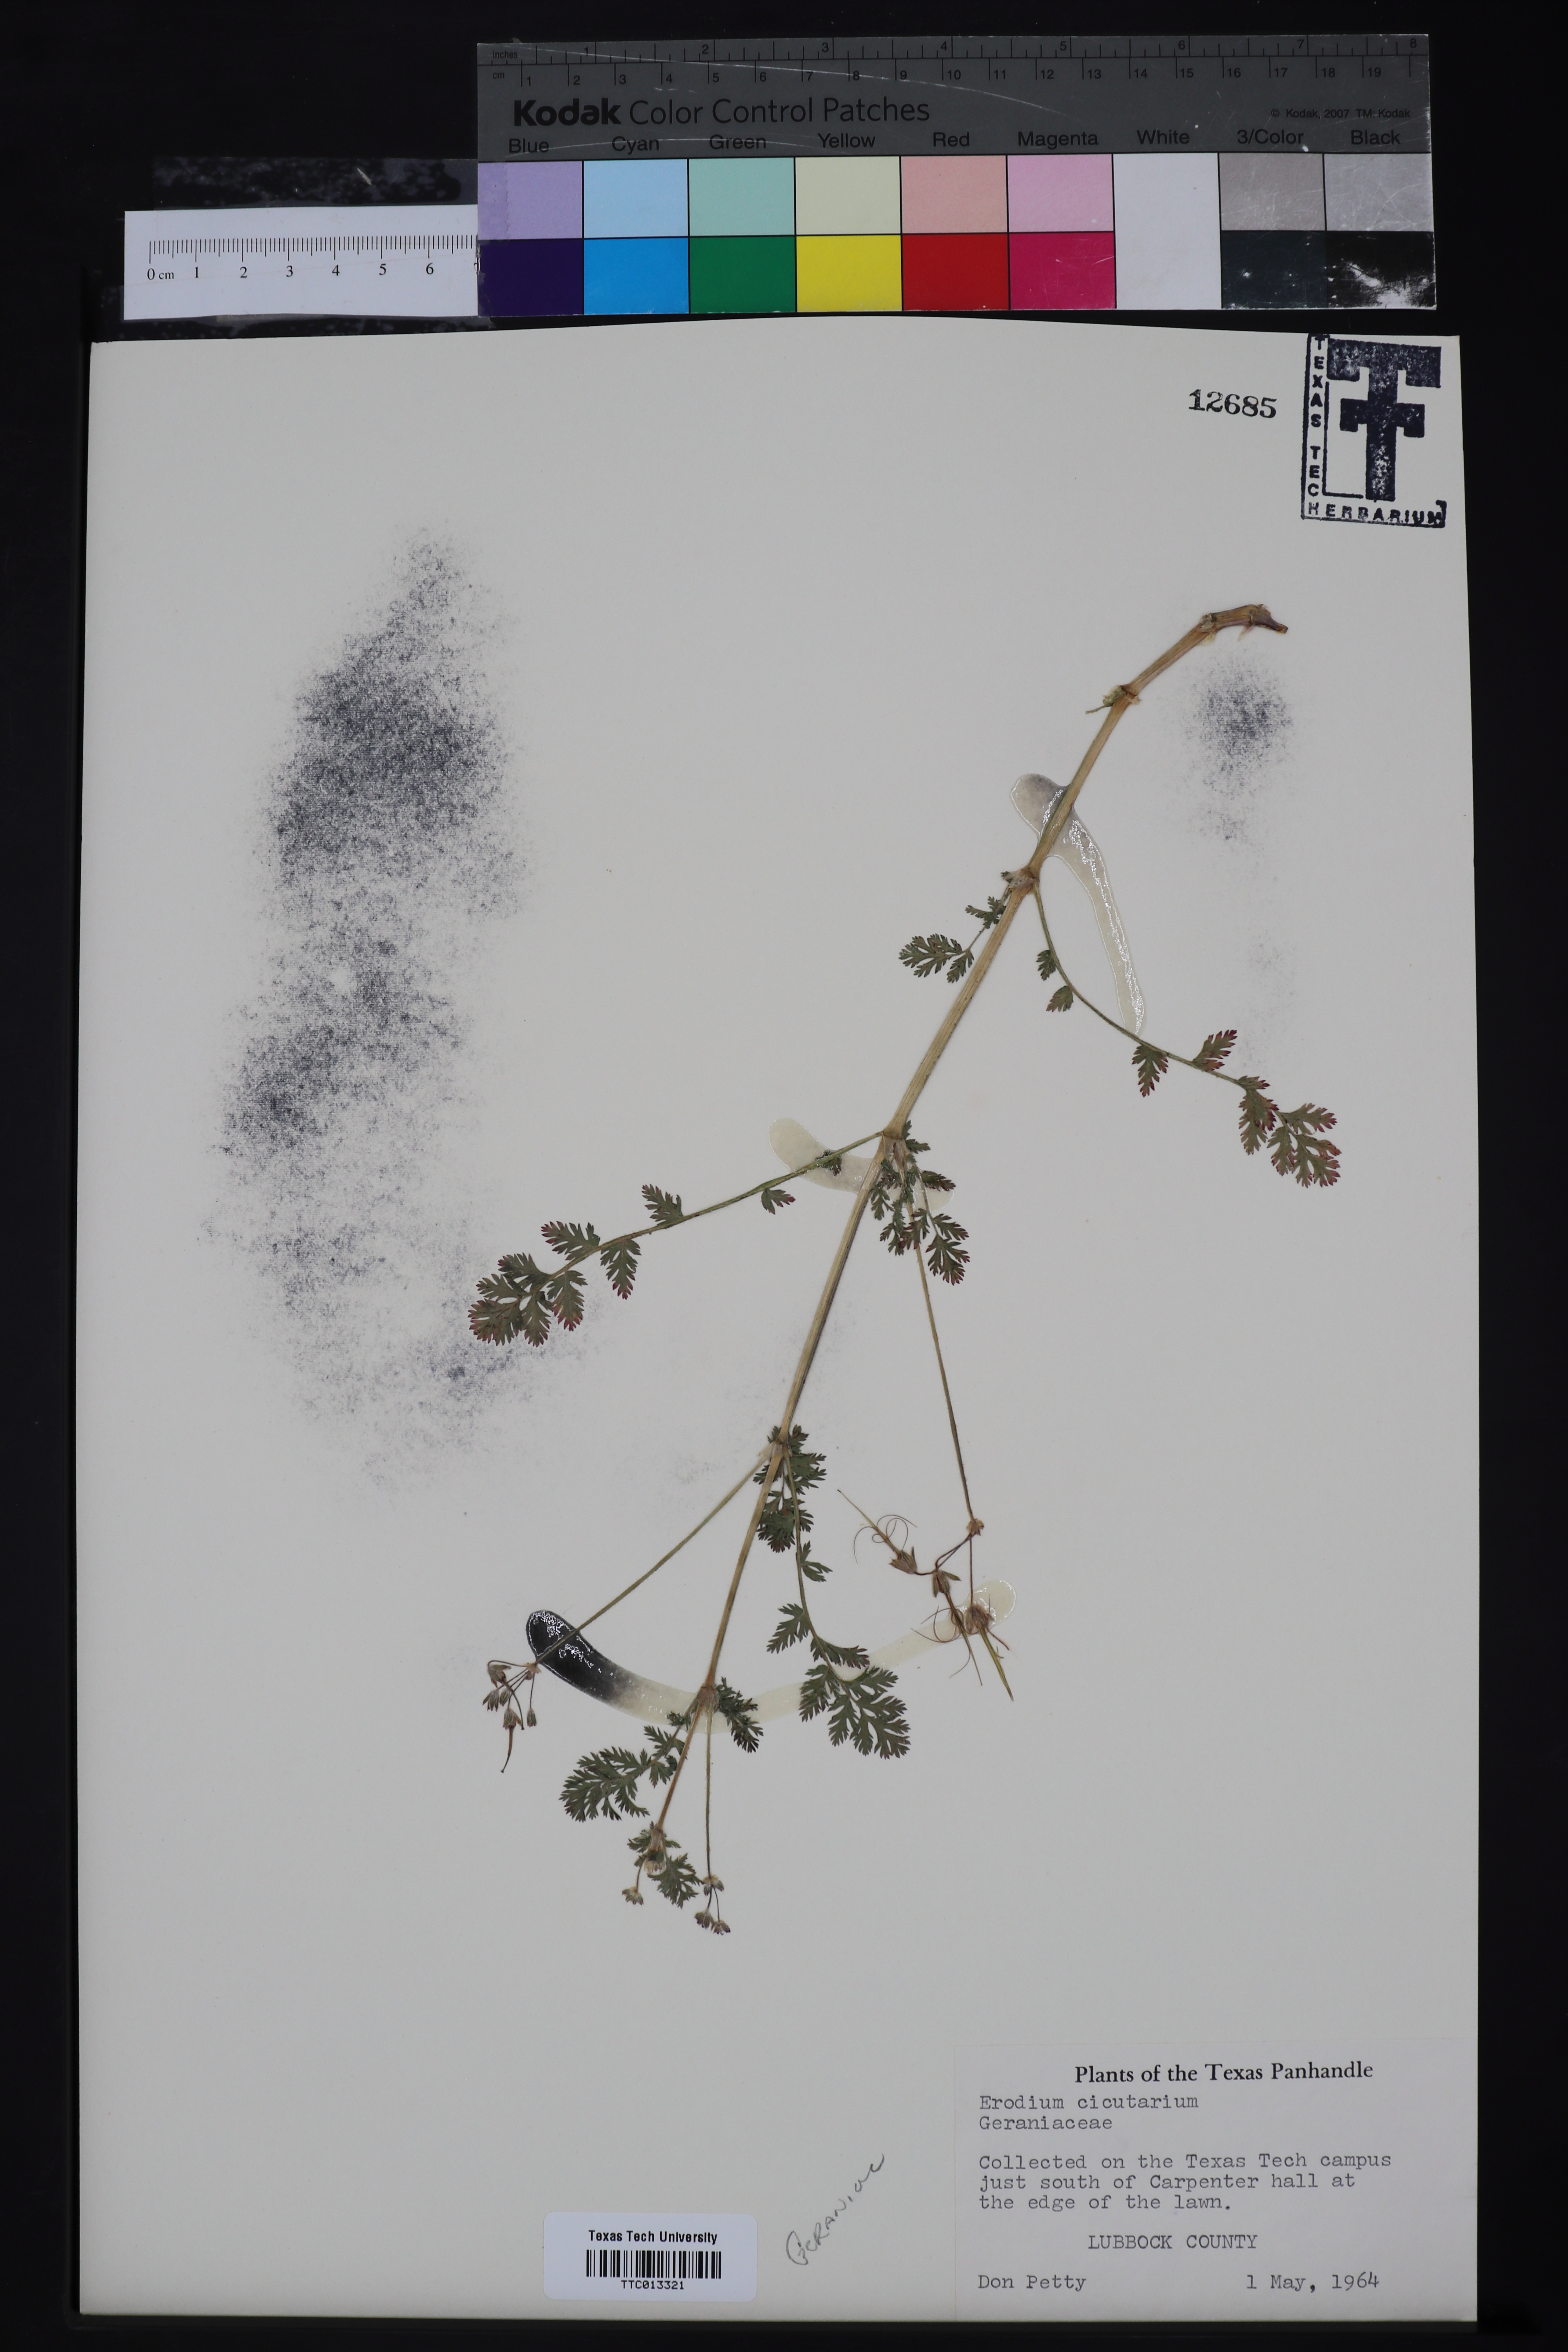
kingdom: Plantae
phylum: Tracheophyta
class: Magnoliopsida
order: Geraniales
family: Geraniaceae
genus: Erodium
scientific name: Erodium cicutarium
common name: Common stork's-bill
